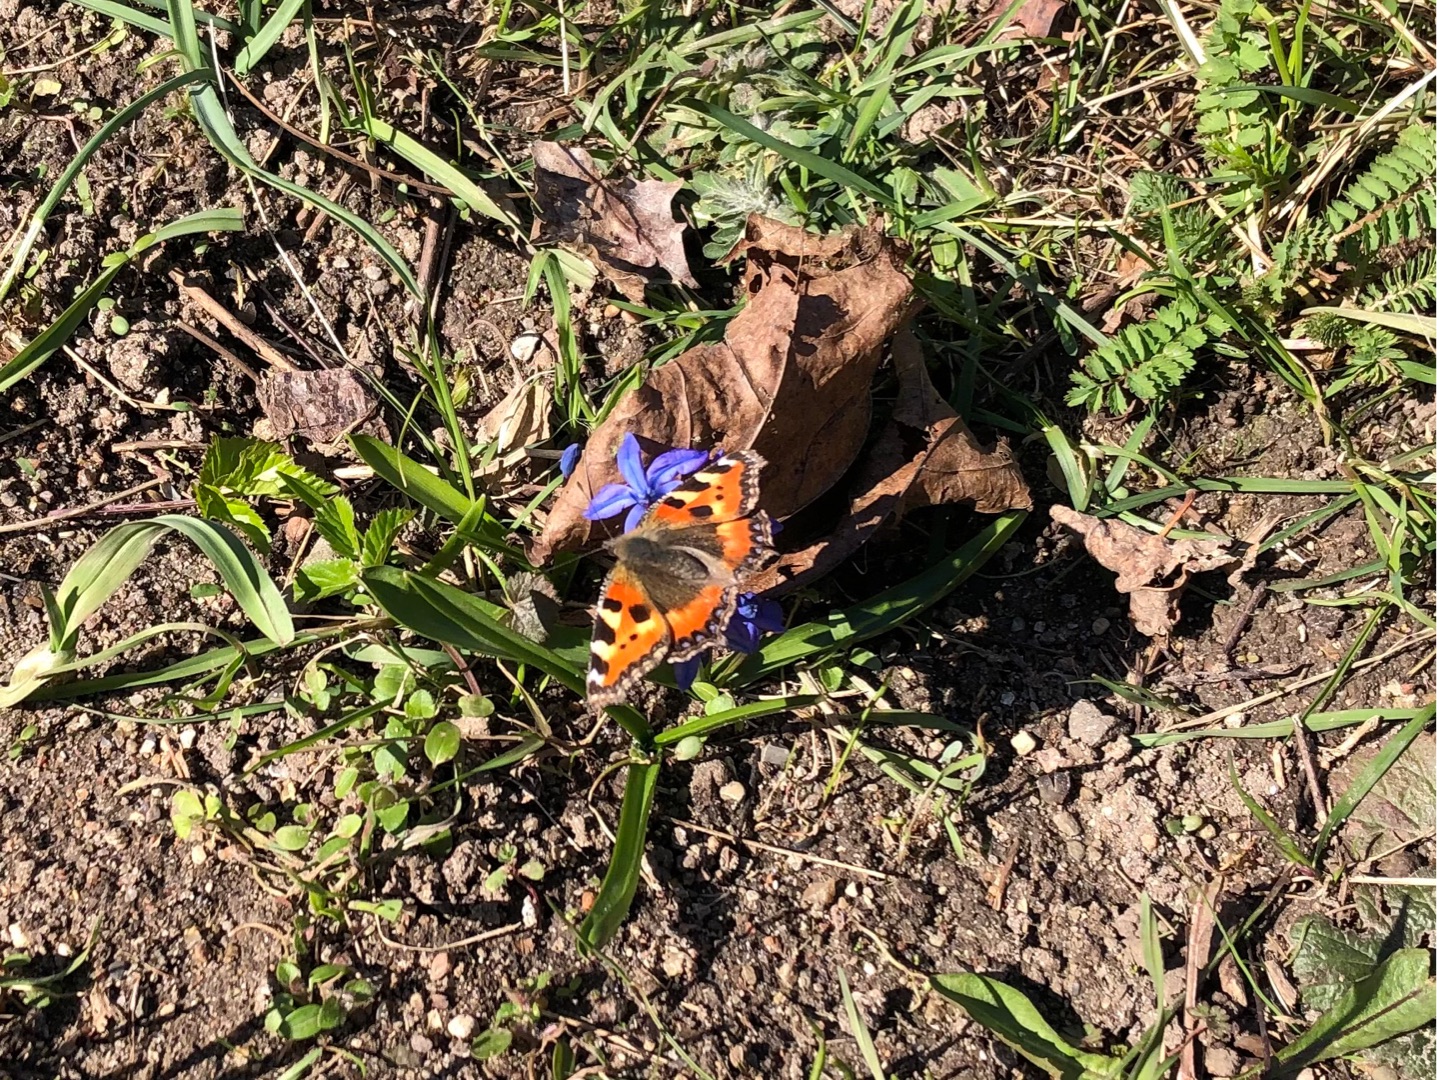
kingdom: Animalia
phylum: Arthropoda
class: Insecta
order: Lepidoptera
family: Nymphalidae
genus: Aglais
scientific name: Aglais urticae
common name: Nældens takvinge
